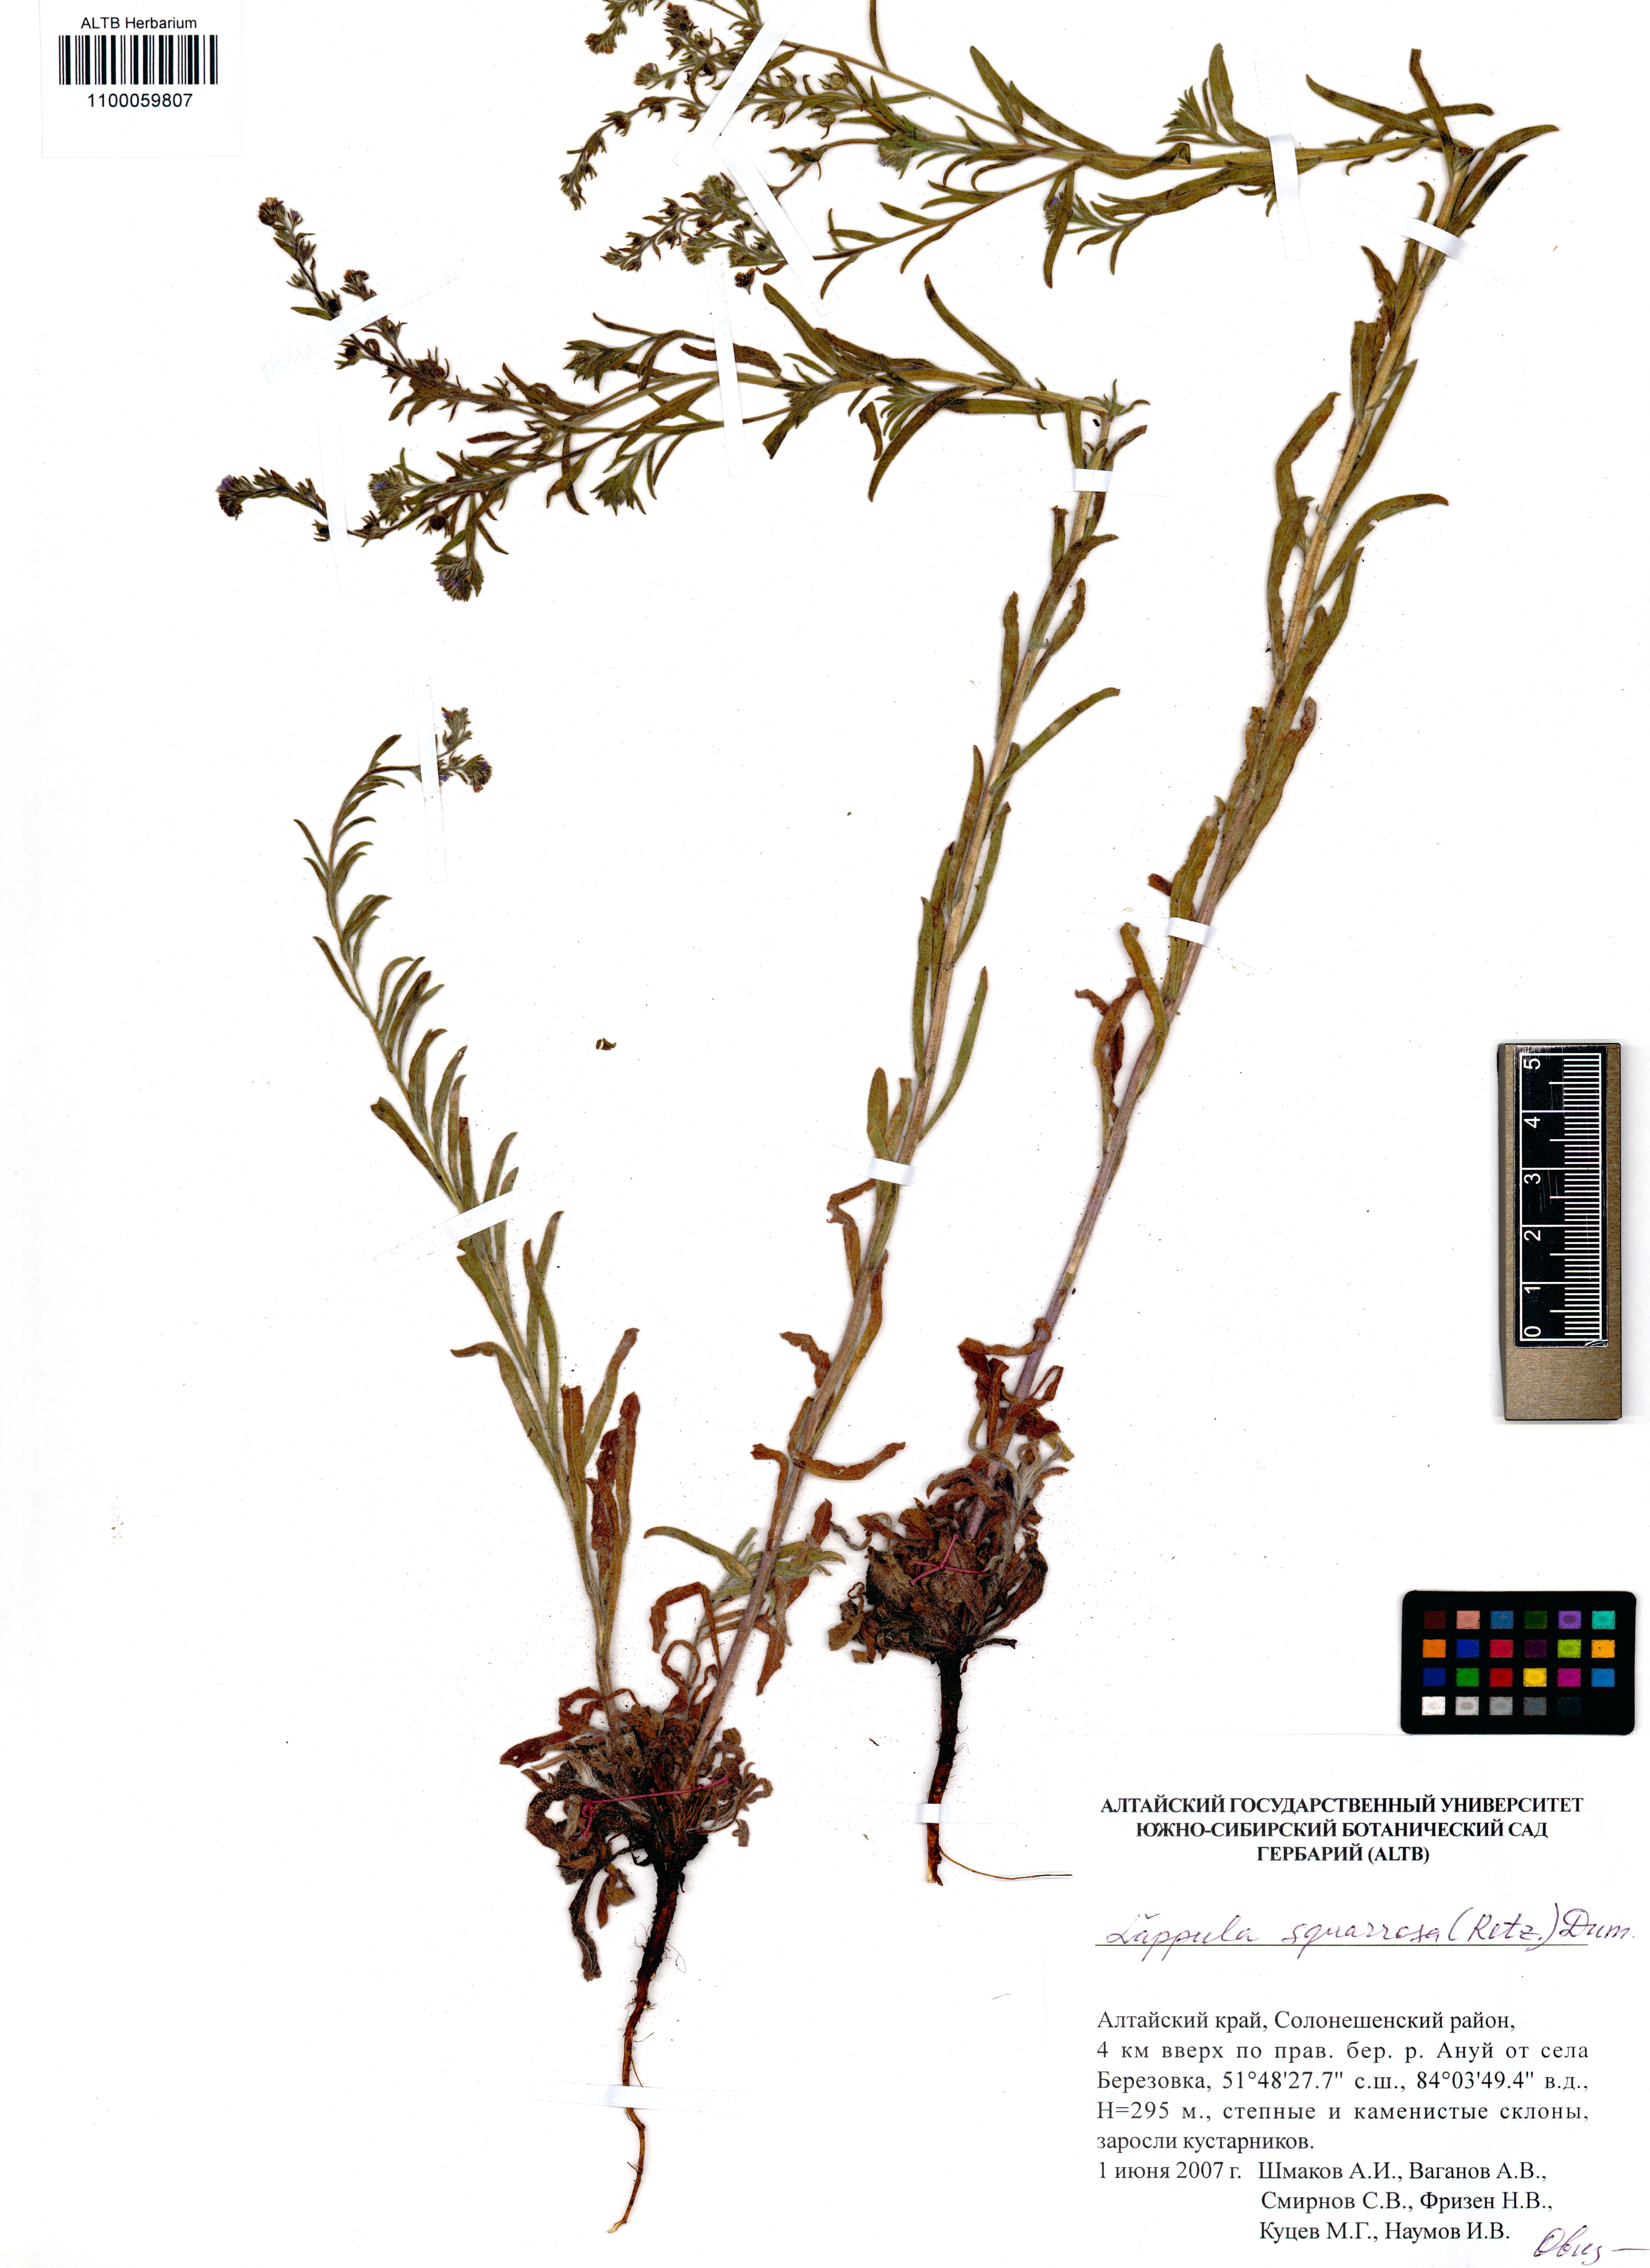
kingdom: Plantae
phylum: Tracheophyta
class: Magnoliopsida
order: Boraginales
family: Boraginaceae
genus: Lappula
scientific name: Lappula squarrosa
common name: European stickseed
